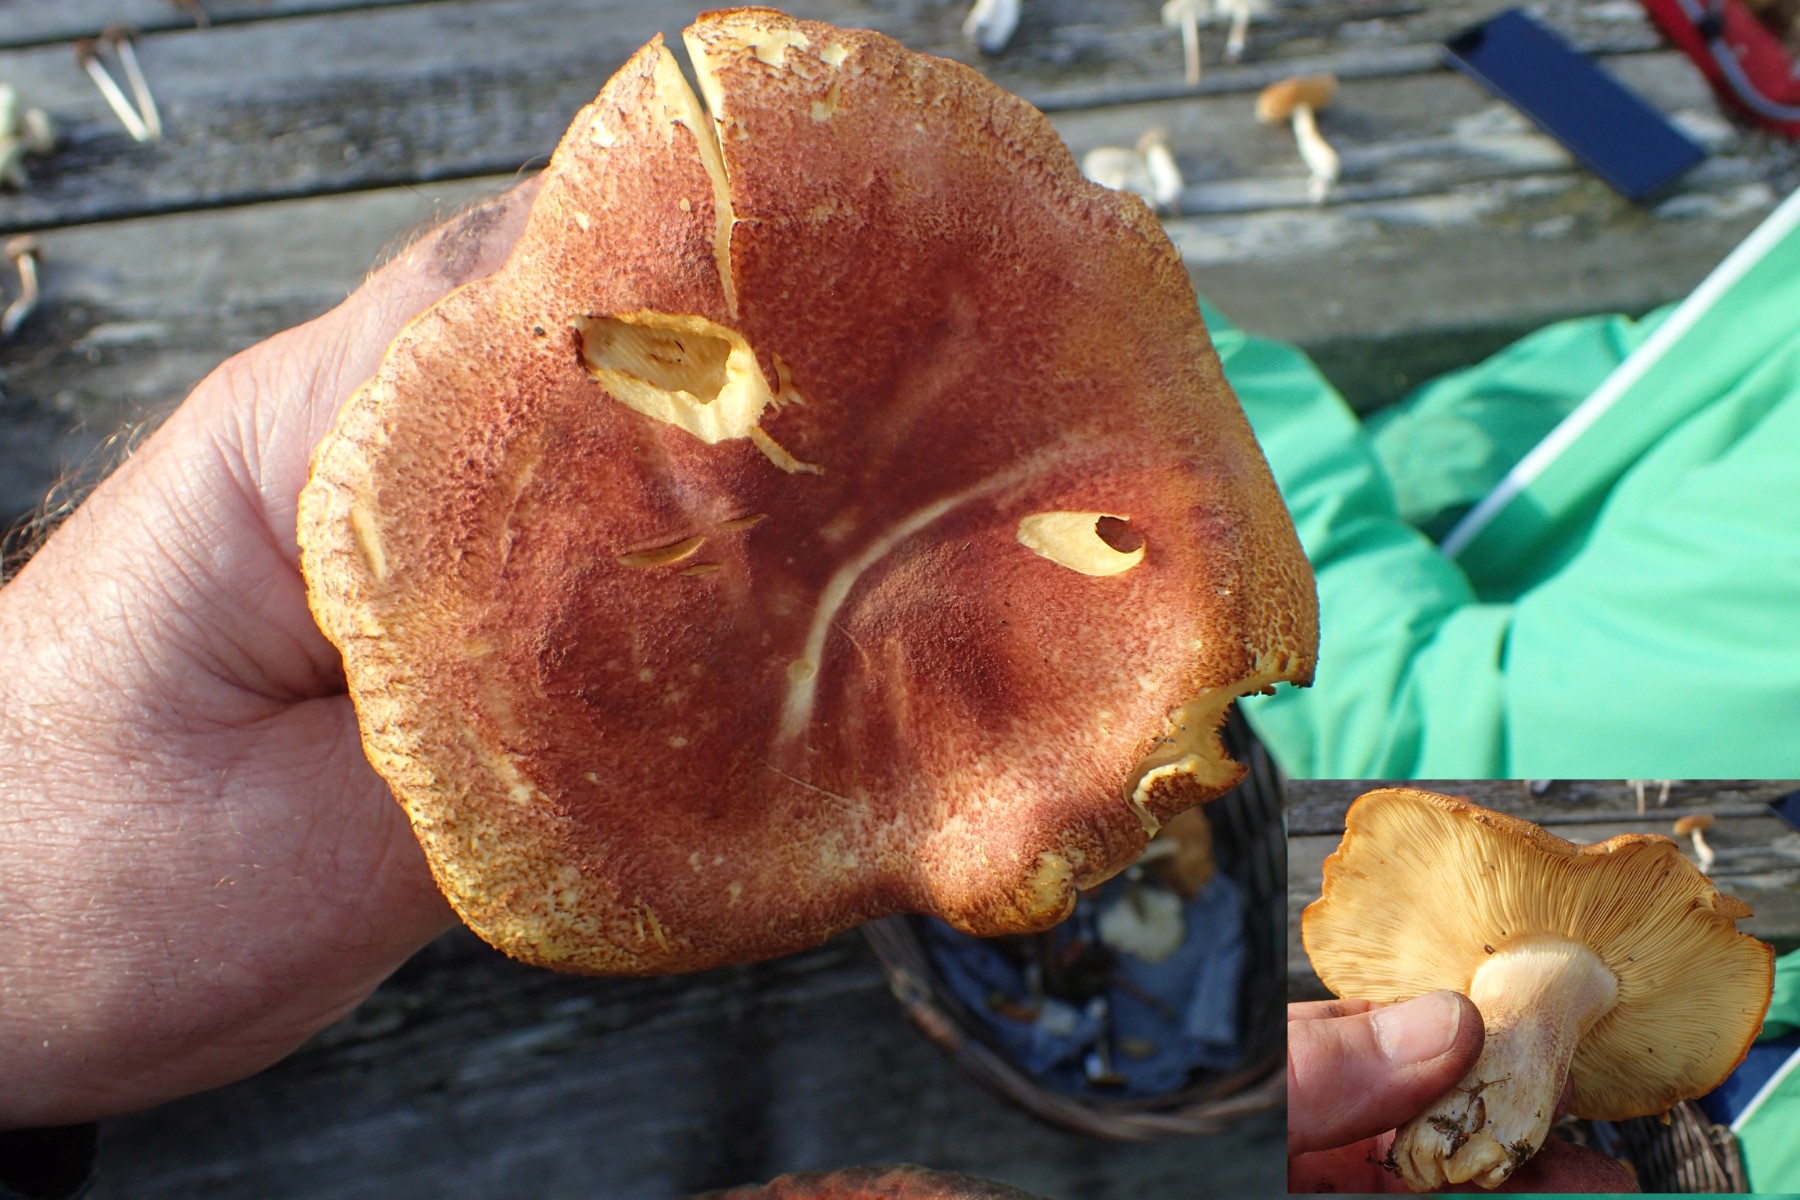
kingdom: Fungi
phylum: Basidiomycota
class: Agaricomycetes
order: Agaricales
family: Tricholomataceae
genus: Tricholomopsis
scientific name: Tricholomopsis rutilans
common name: purpur-væbnerhat
